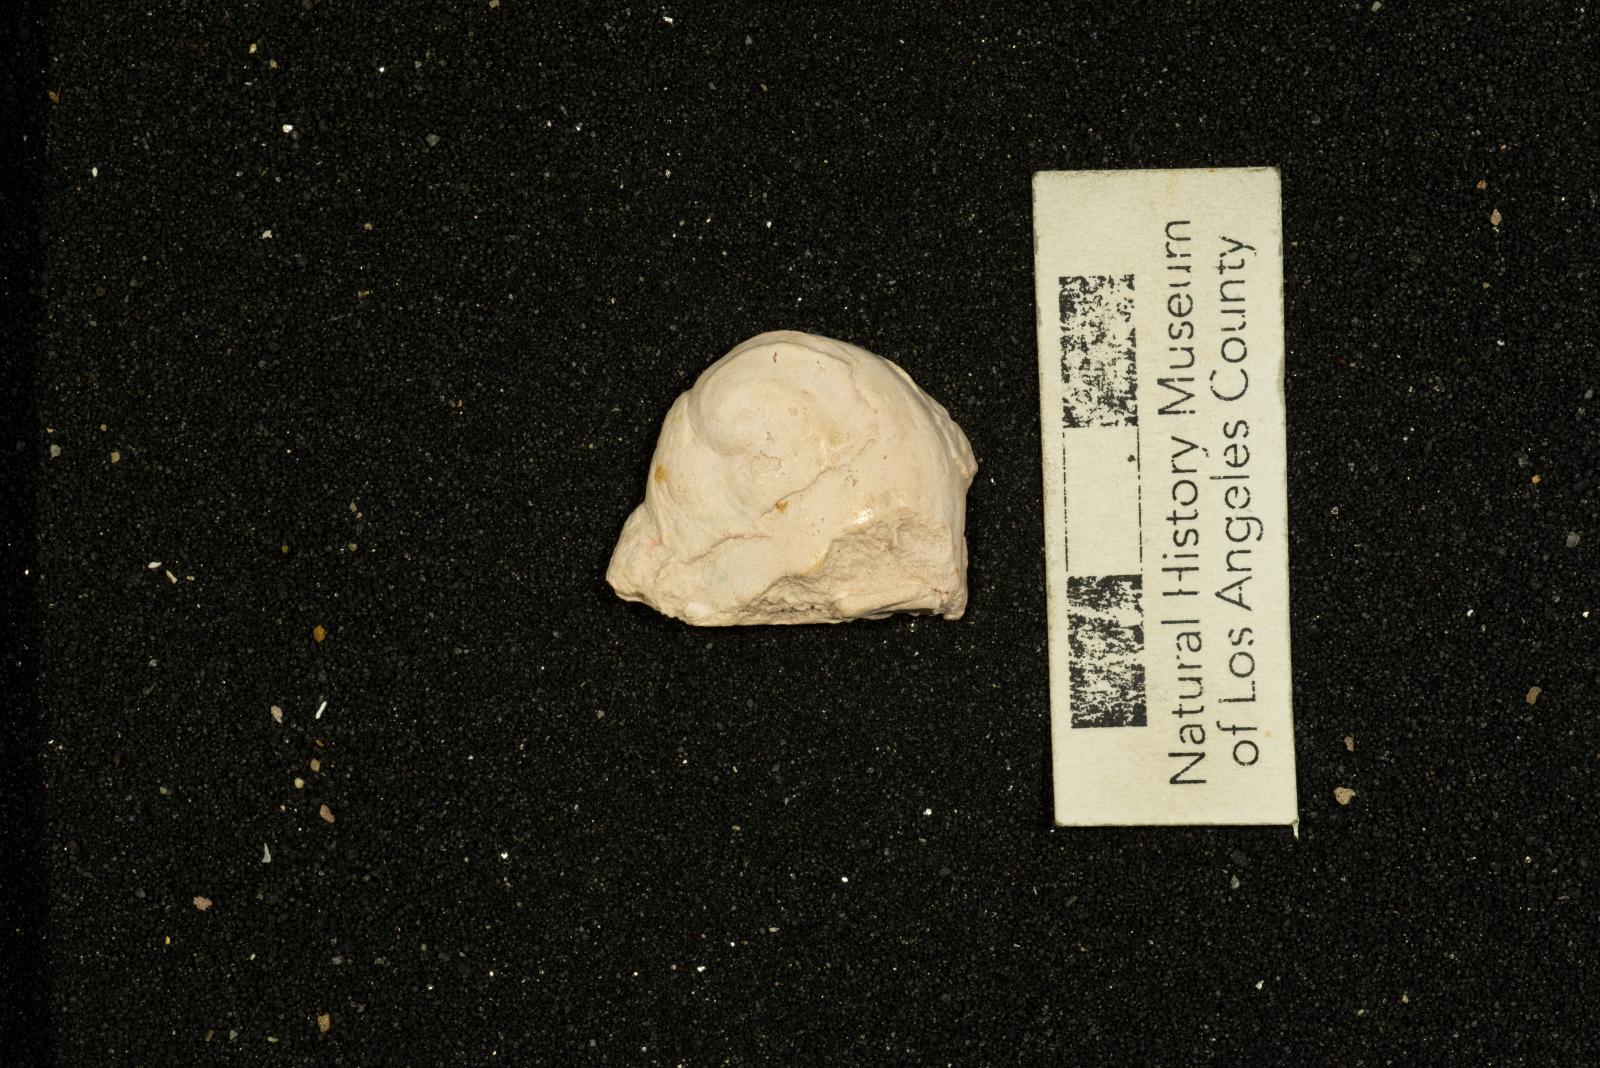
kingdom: Animalia
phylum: Mollusca
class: Gastropoda
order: Littorinimorpha
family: Capulidae
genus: Garzasia
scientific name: Garzasia Stomatia intermedia
